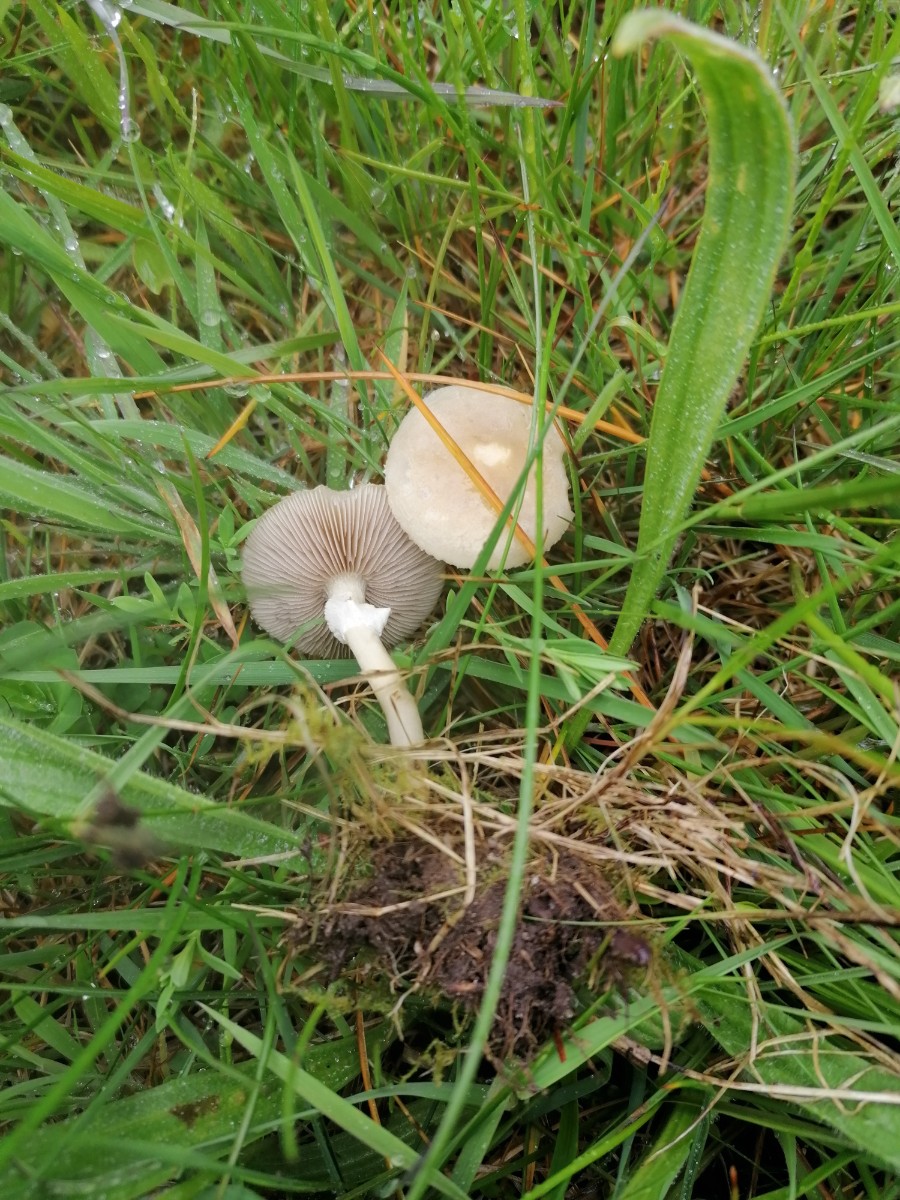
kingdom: Fungi
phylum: Basidiomycota
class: Agaricomycetes
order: Agaricales
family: Strophariaceae
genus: Agrocybe
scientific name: Agrocybe elatella
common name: mose-agerhat
